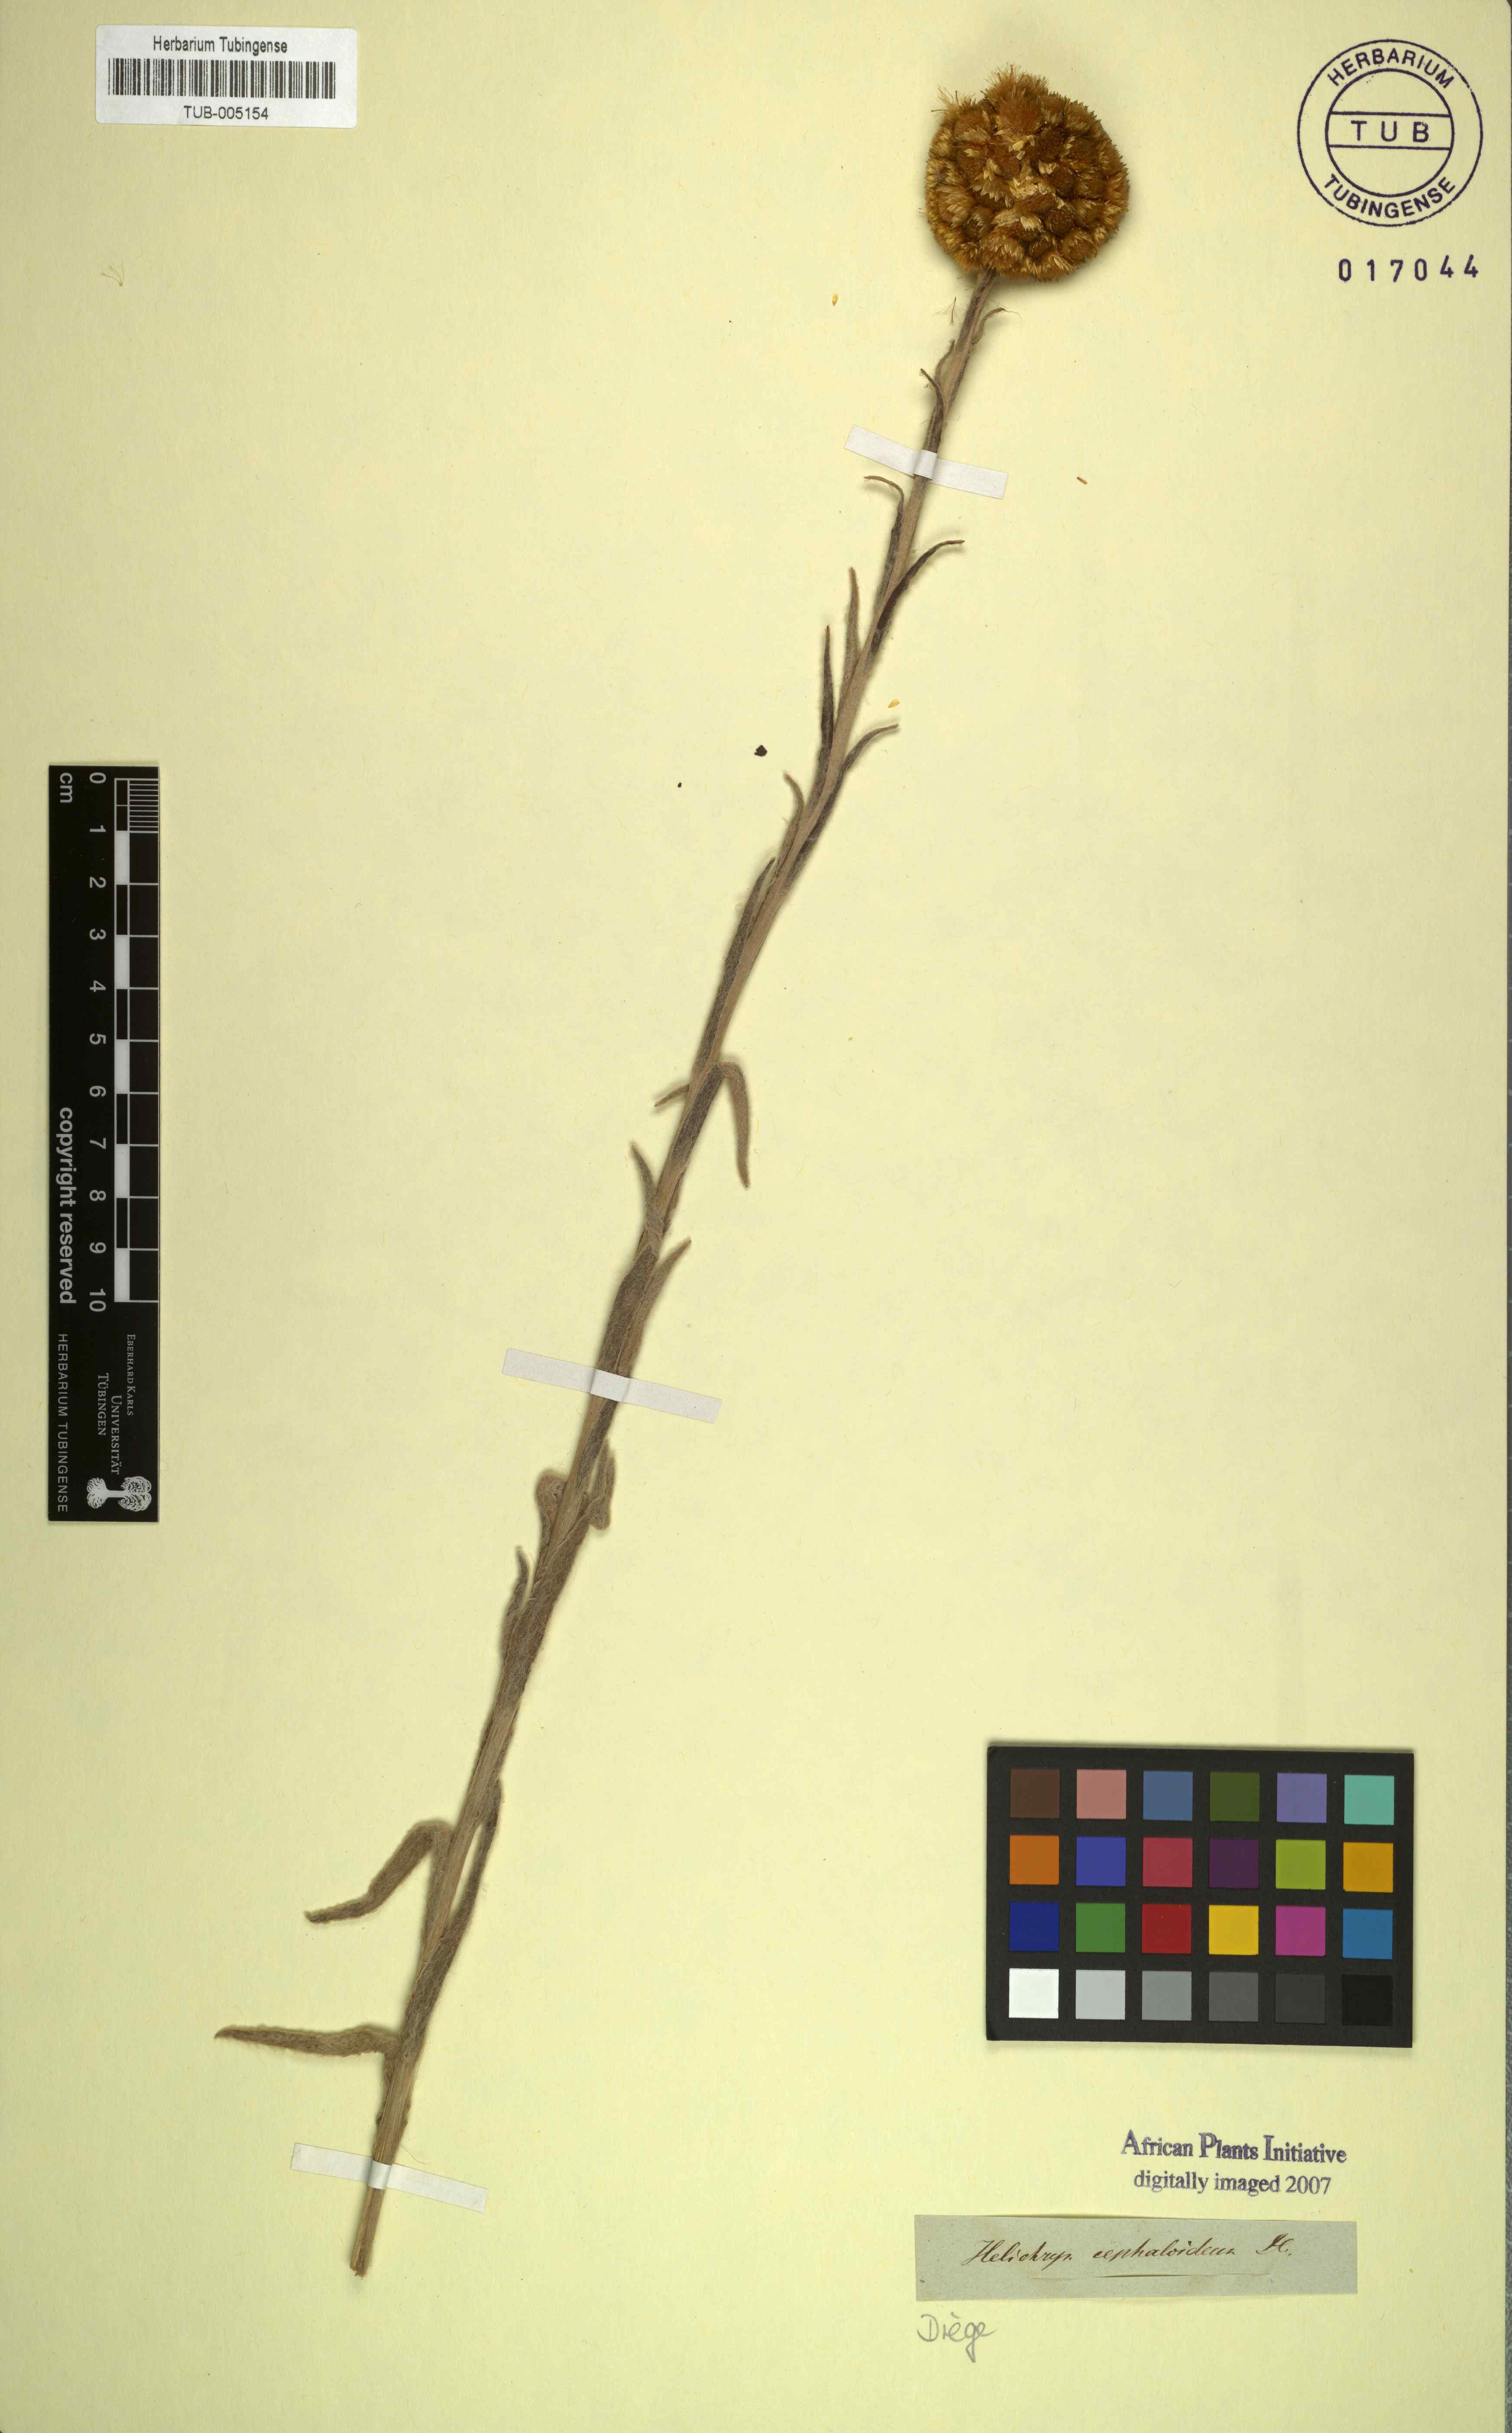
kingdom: Plantae
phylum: Tracheophyta
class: Magnoliopsida
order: Asterales
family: Asteraceae
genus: Helichrysum
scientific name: Helichrysum cephaloideum
